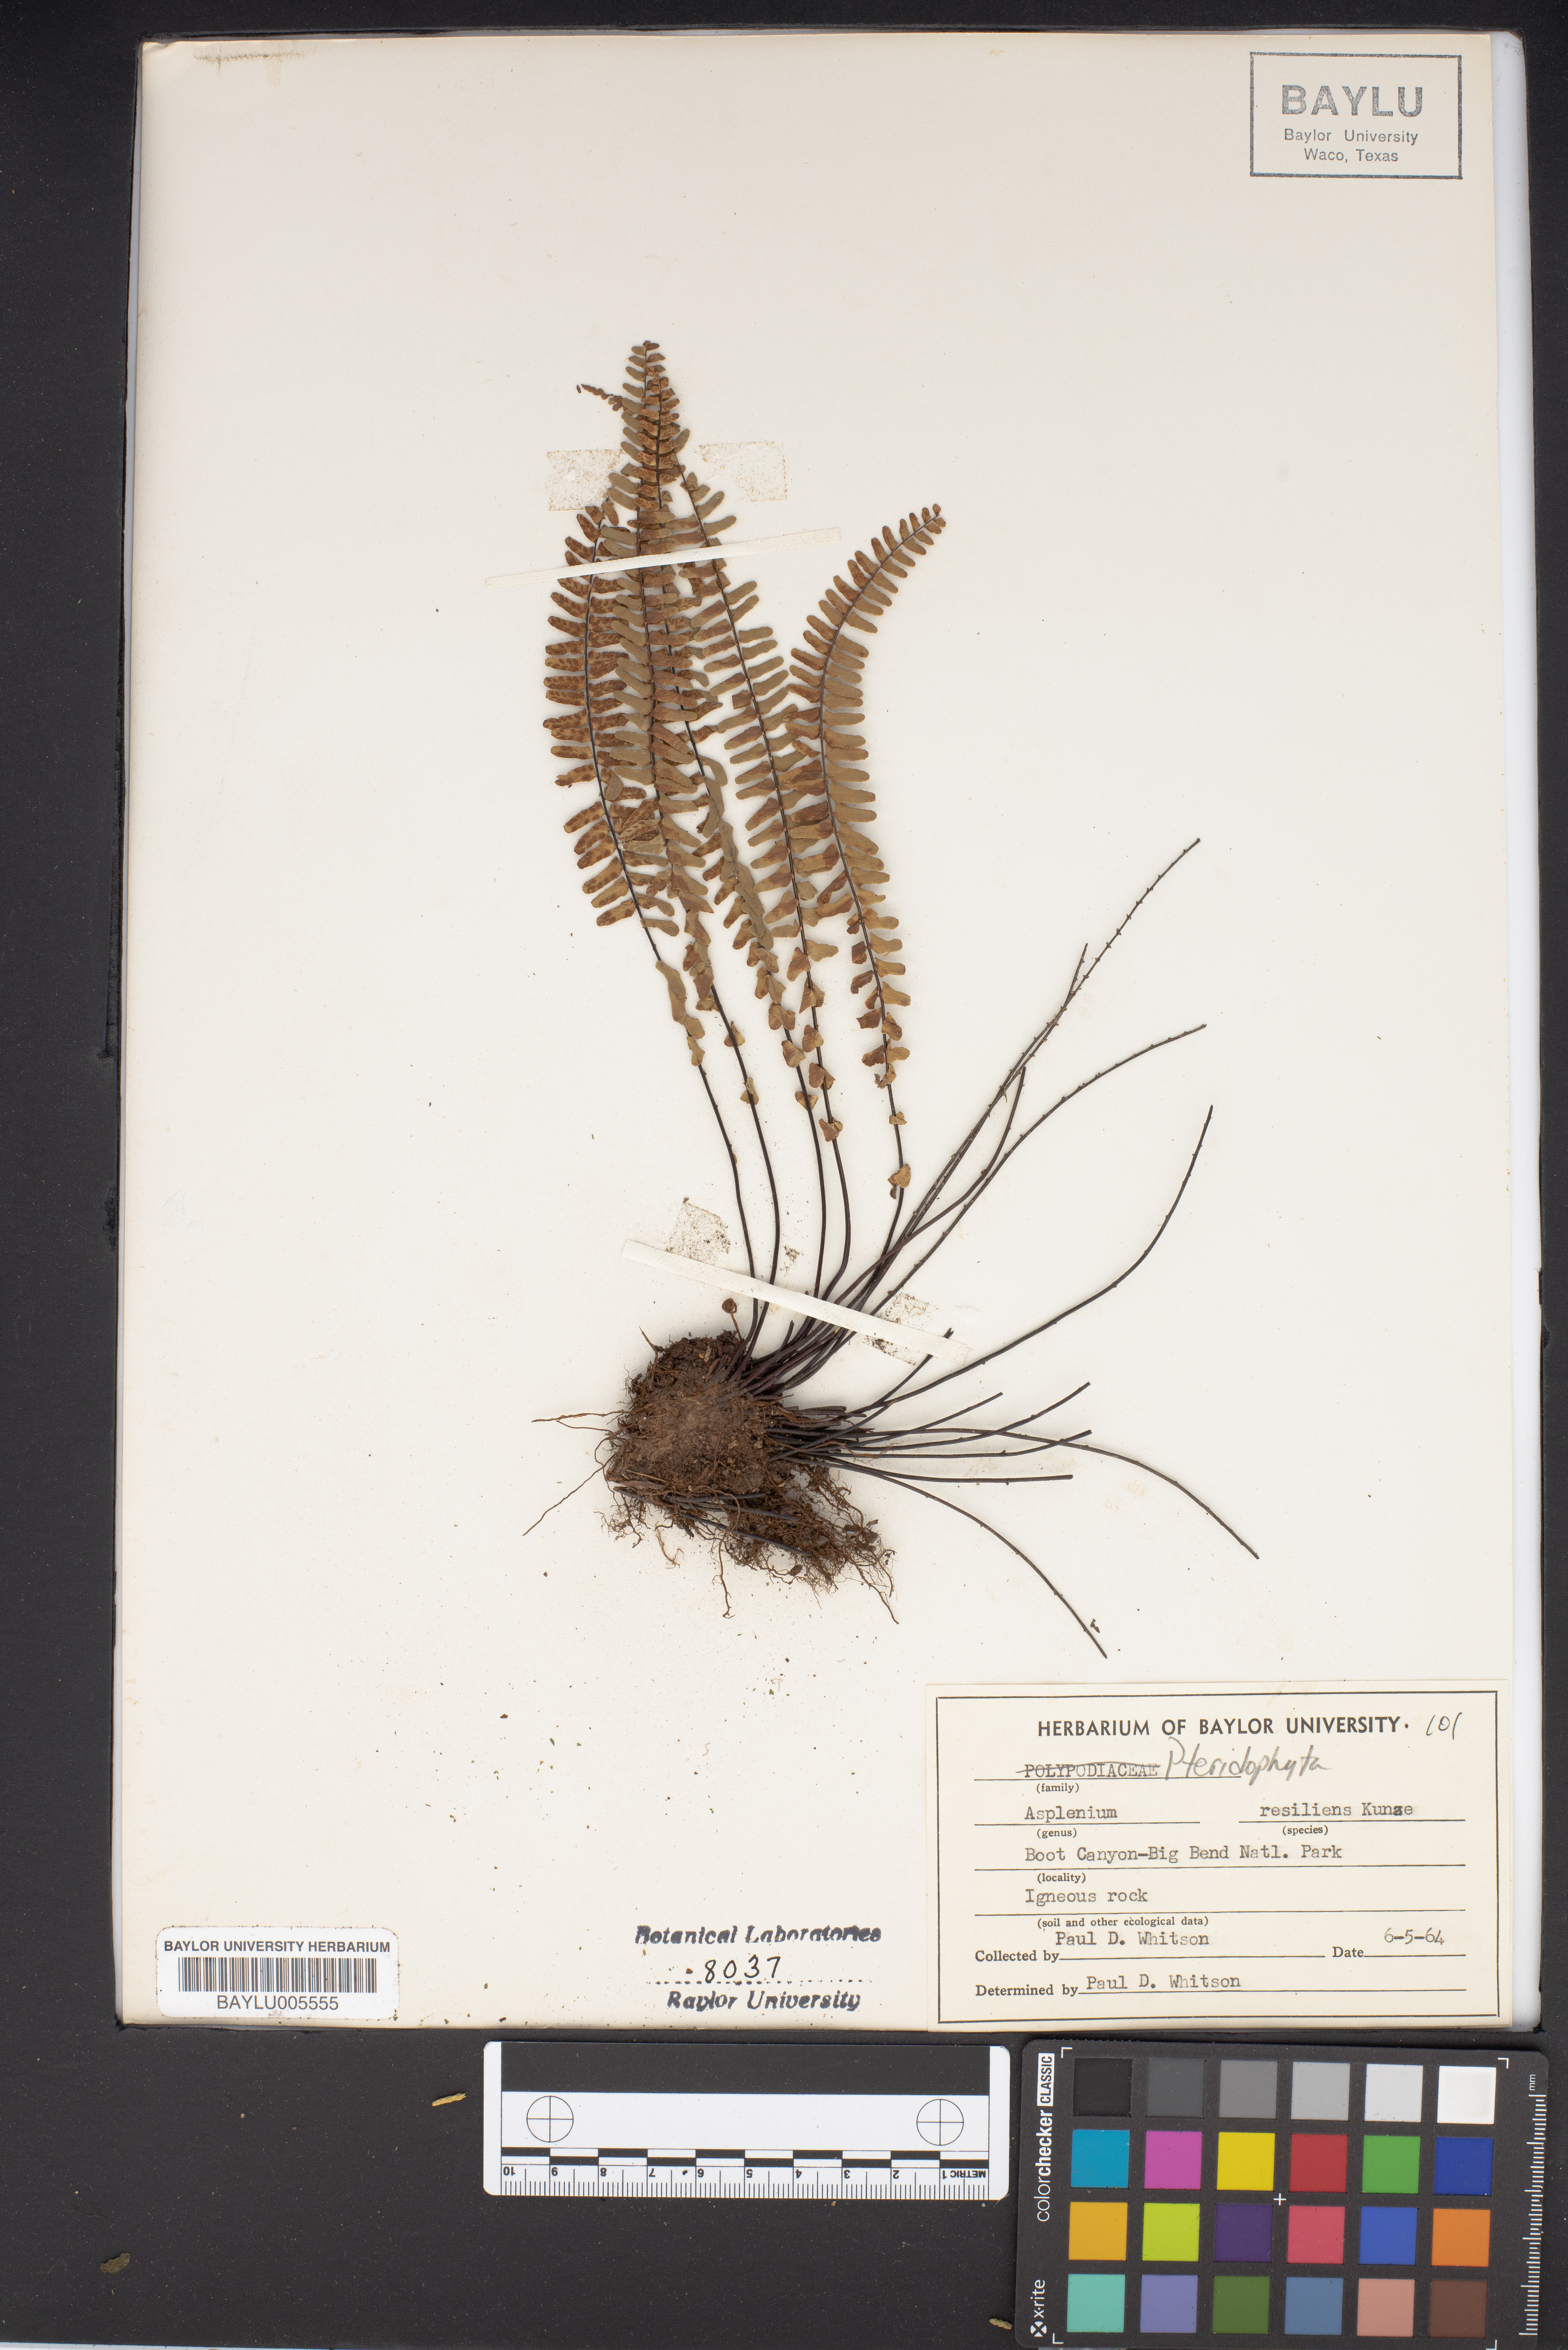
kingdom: Plantae
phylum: Tracheophyta
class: Polypodiopsida
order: Polypodiales
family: Aspleniaceae
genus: Asplenium
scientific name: Asplenium resiliens
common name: Blackstem spleenwort
